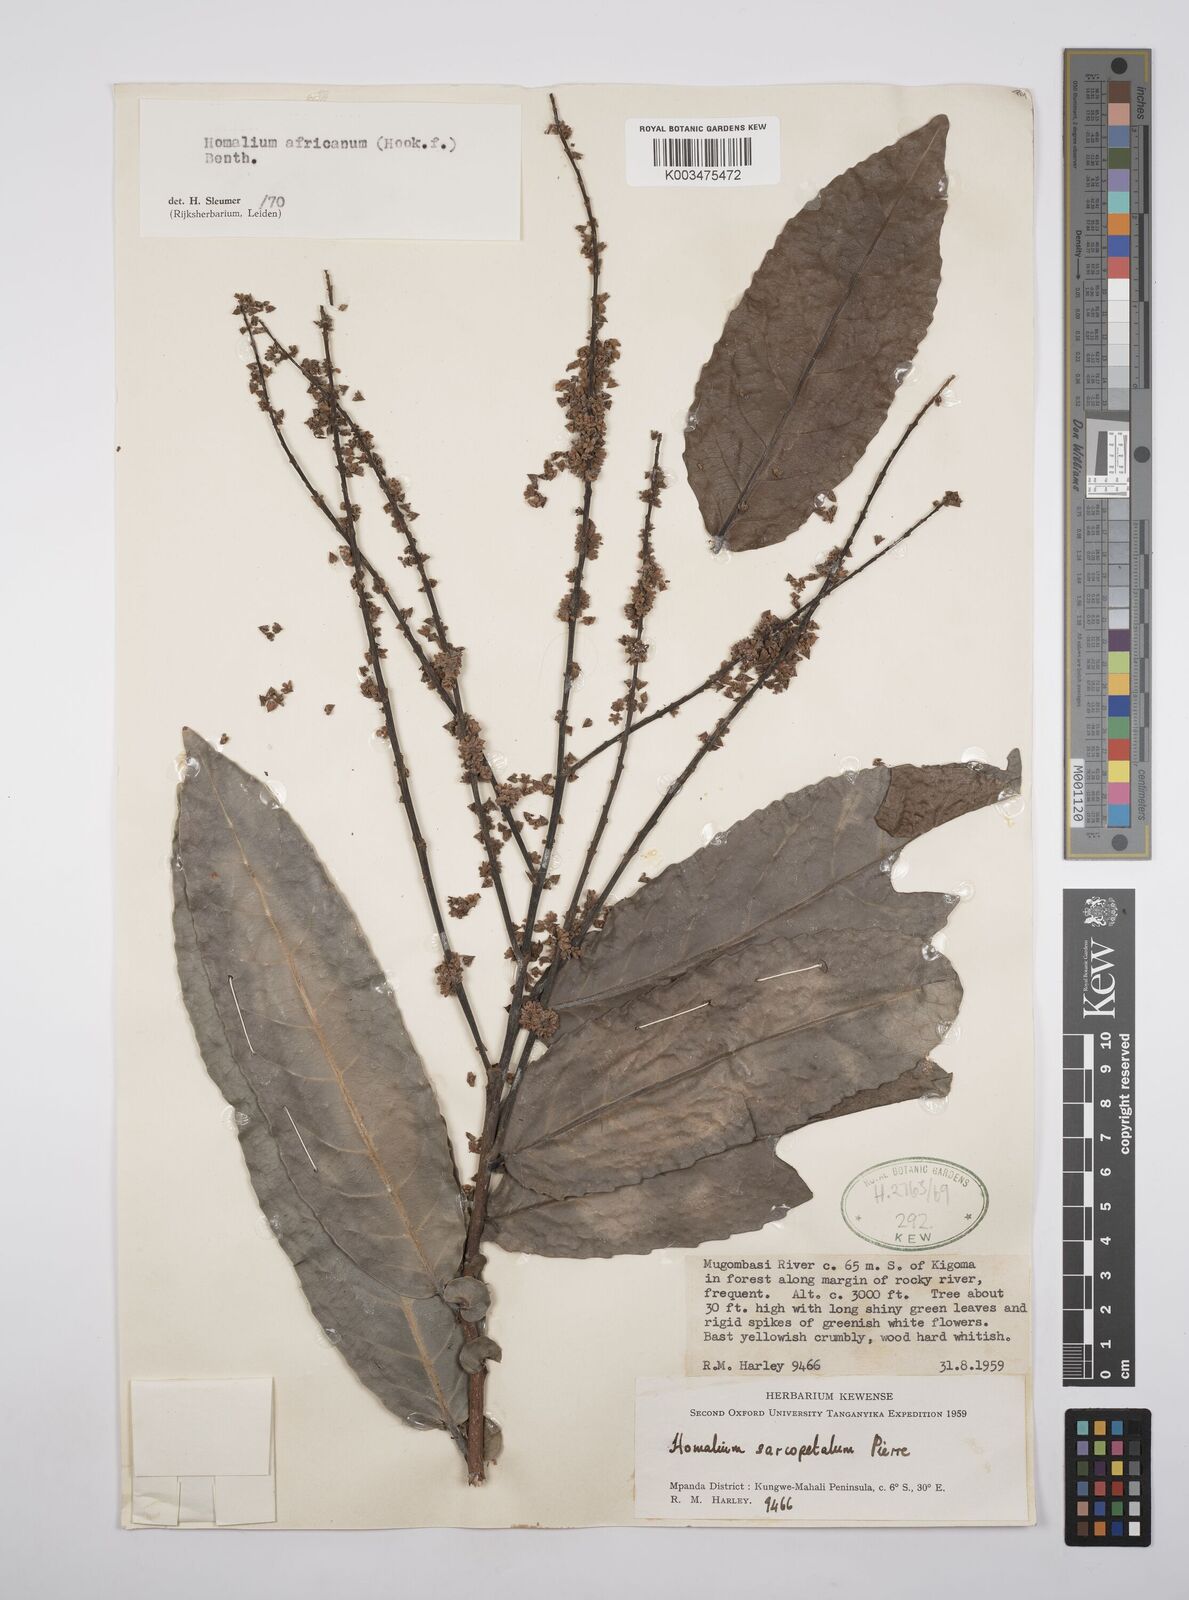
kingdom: Plantae
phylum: Tracheophyta
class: Magnoliopsida
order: Malpighiales
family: Salicaceae
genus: Homalium
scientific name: Homalium africanum
